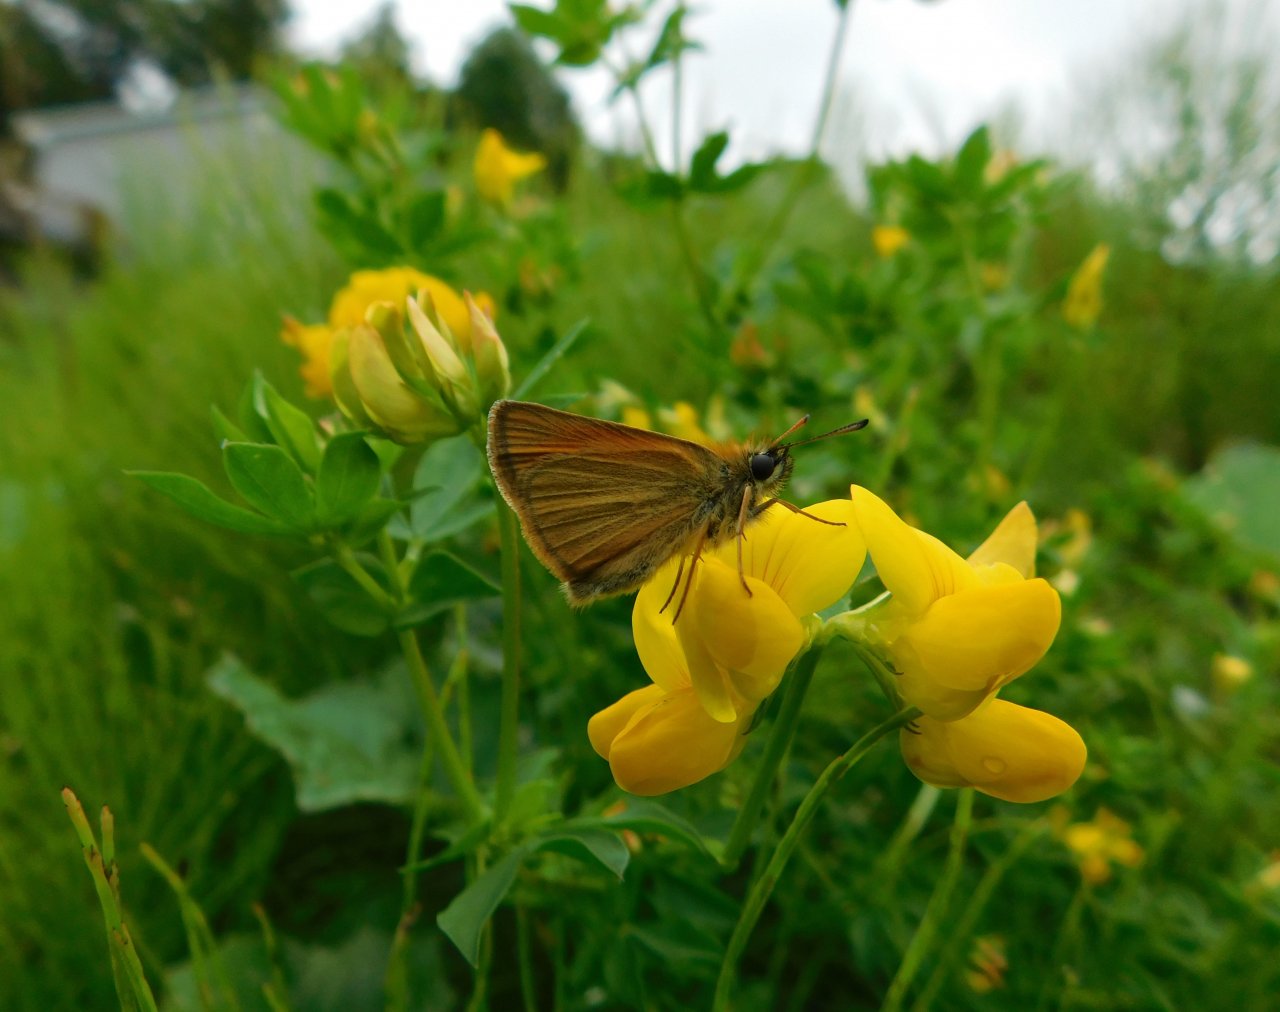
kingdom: Animalia
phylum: Arthropoda
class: Insecta
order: Lepidoptera
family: Hesperiidae
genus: Thymelicus
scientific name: Thymelicus lineola
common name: European Skipper
